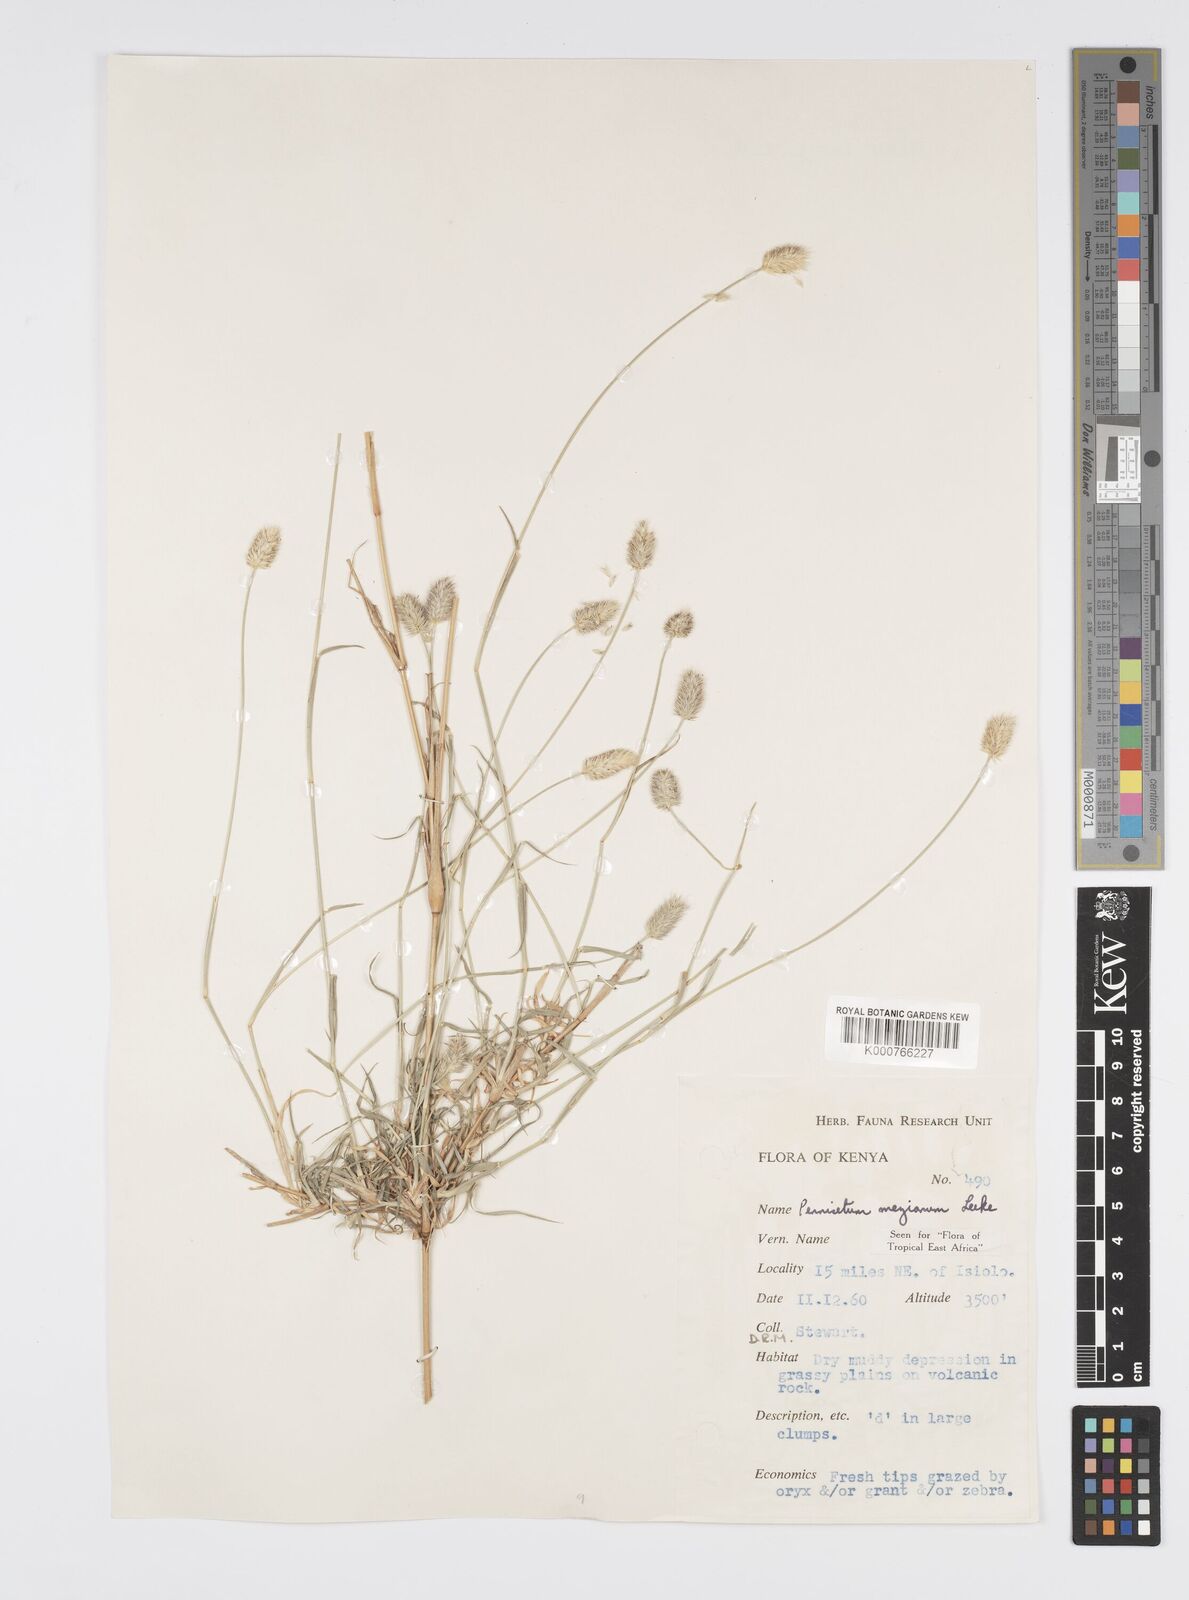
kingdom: Plantae
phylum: Tracheophyta
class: Liliopsida
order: Poales
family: Poaceae
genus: Cenchrus
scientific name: Cenchrus mezianus
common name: Bamboo grass
